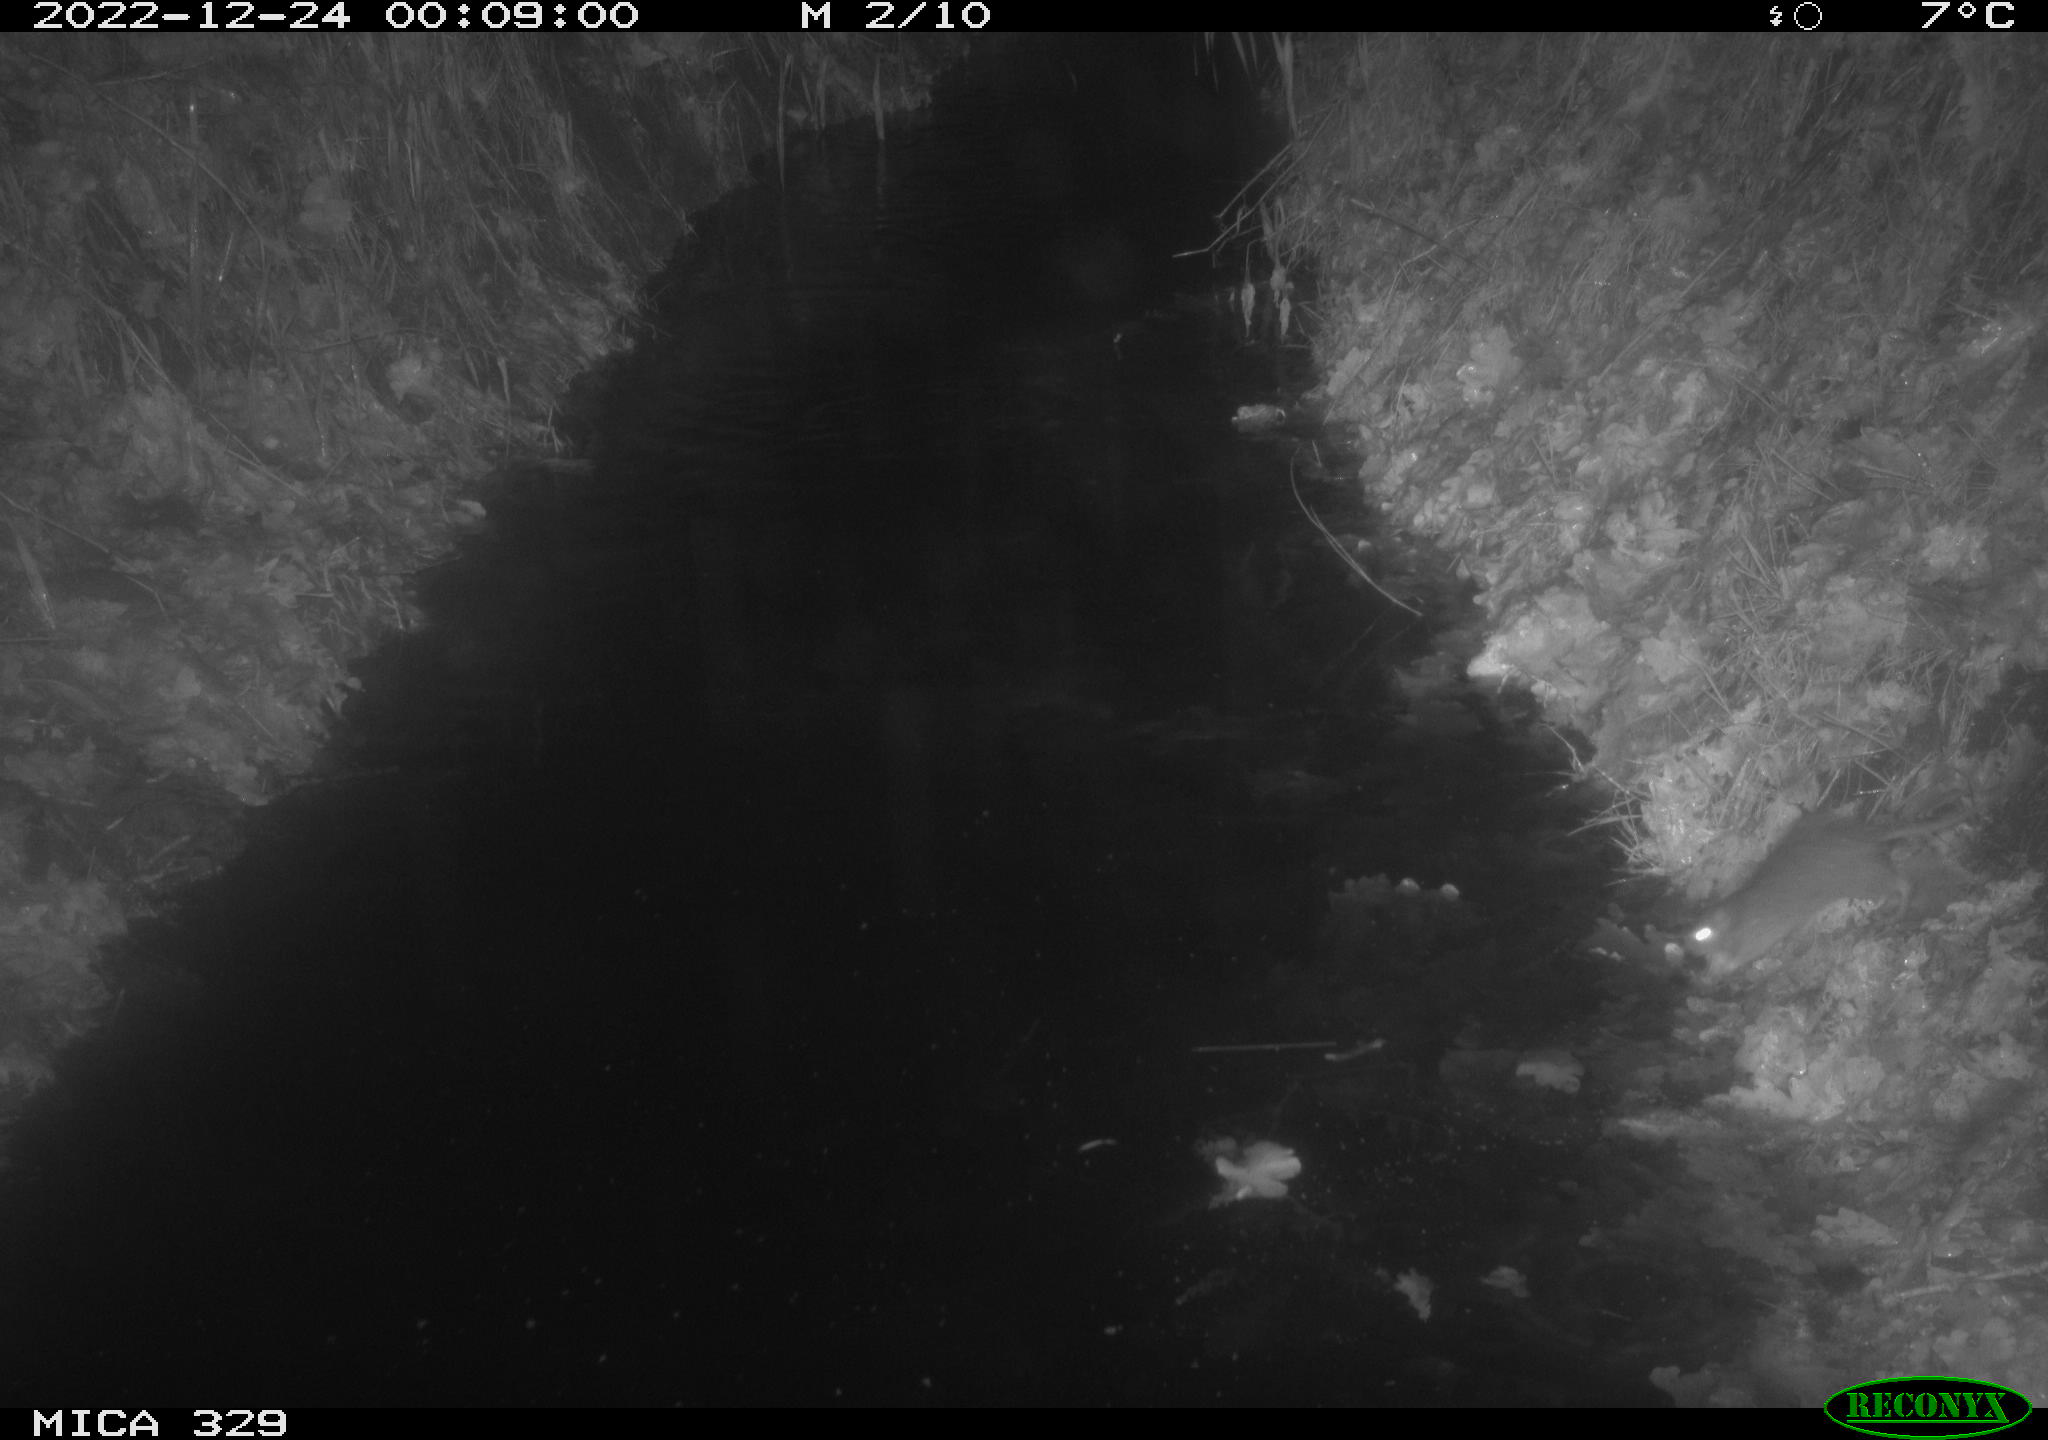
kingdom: Animalia
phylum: Chordata
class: Mammalia
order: Rodentia
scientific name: Rodentia
